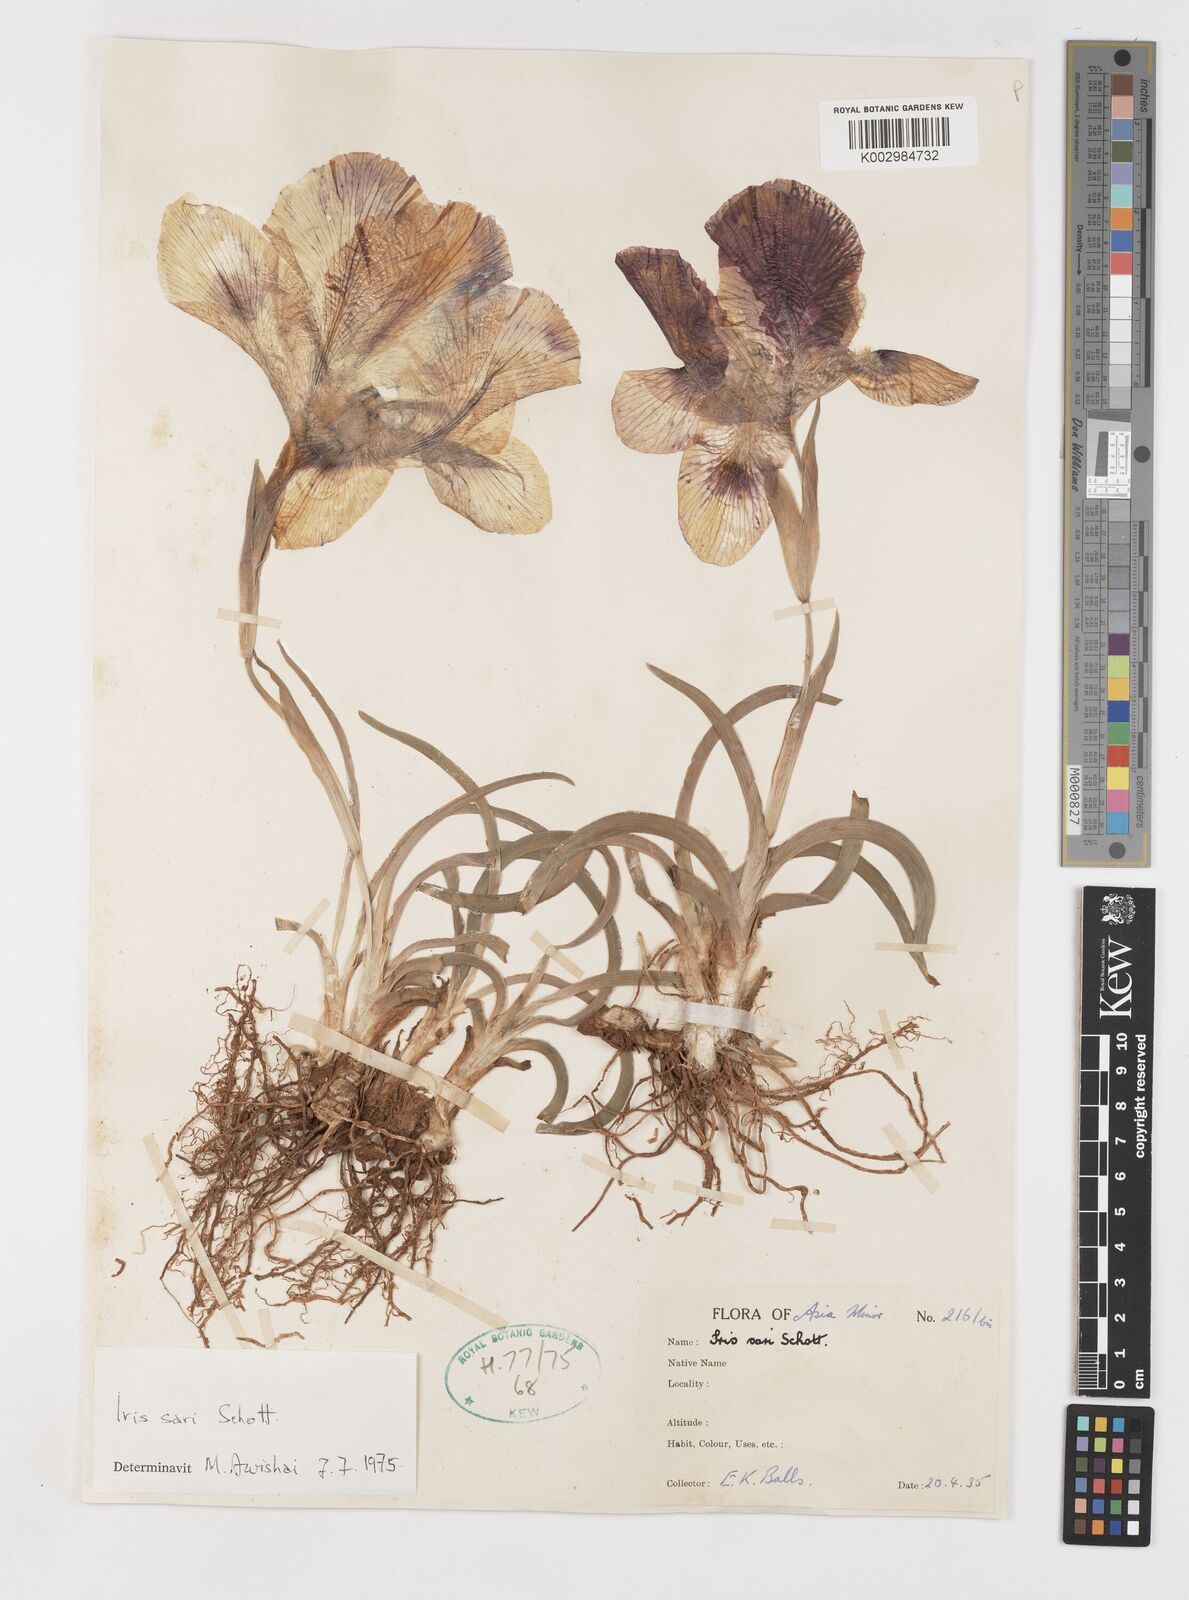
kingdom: Plantae
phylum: Tracheophyta
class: Liliopsida
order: Asparagales
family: Iridaceae
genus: Iris
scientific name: Iris sari
